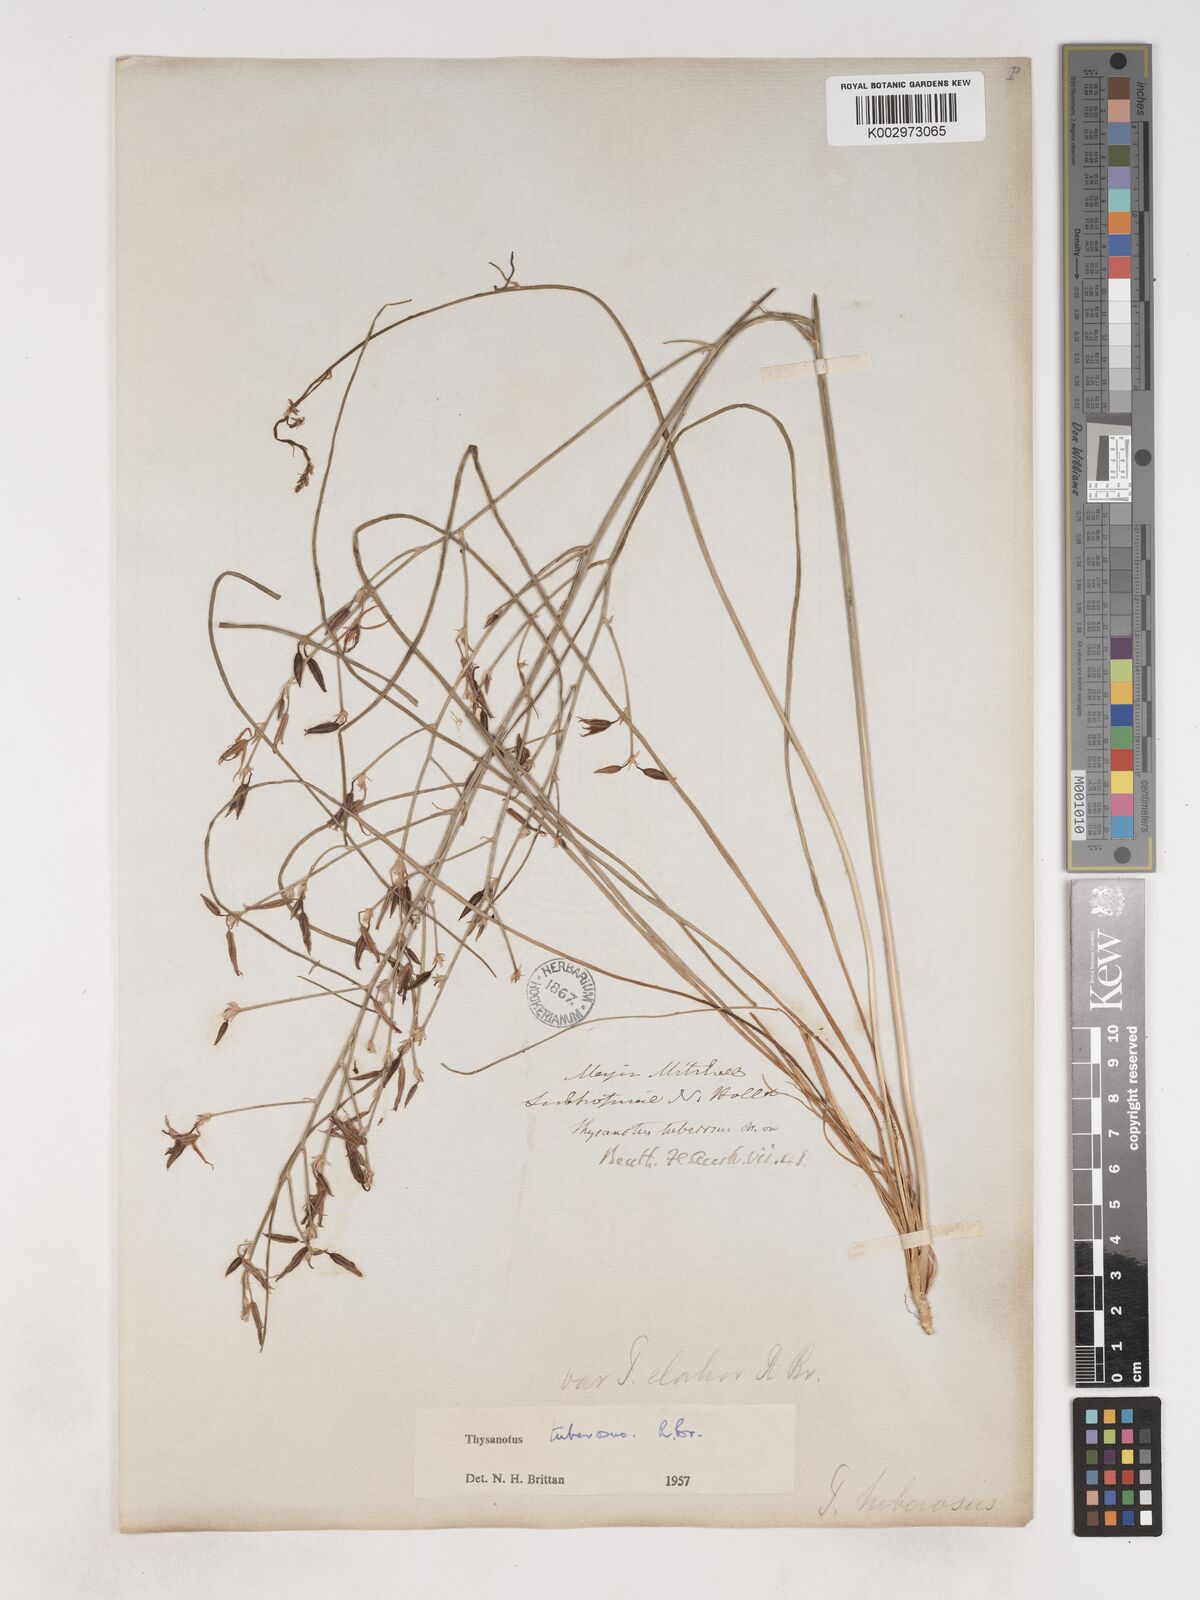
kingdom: Plantae
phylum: Tracheophyta
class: Liliopsida
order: Asparagales
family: Asparagaceae
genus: Thysanotus
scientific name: Thysanotus banksii
